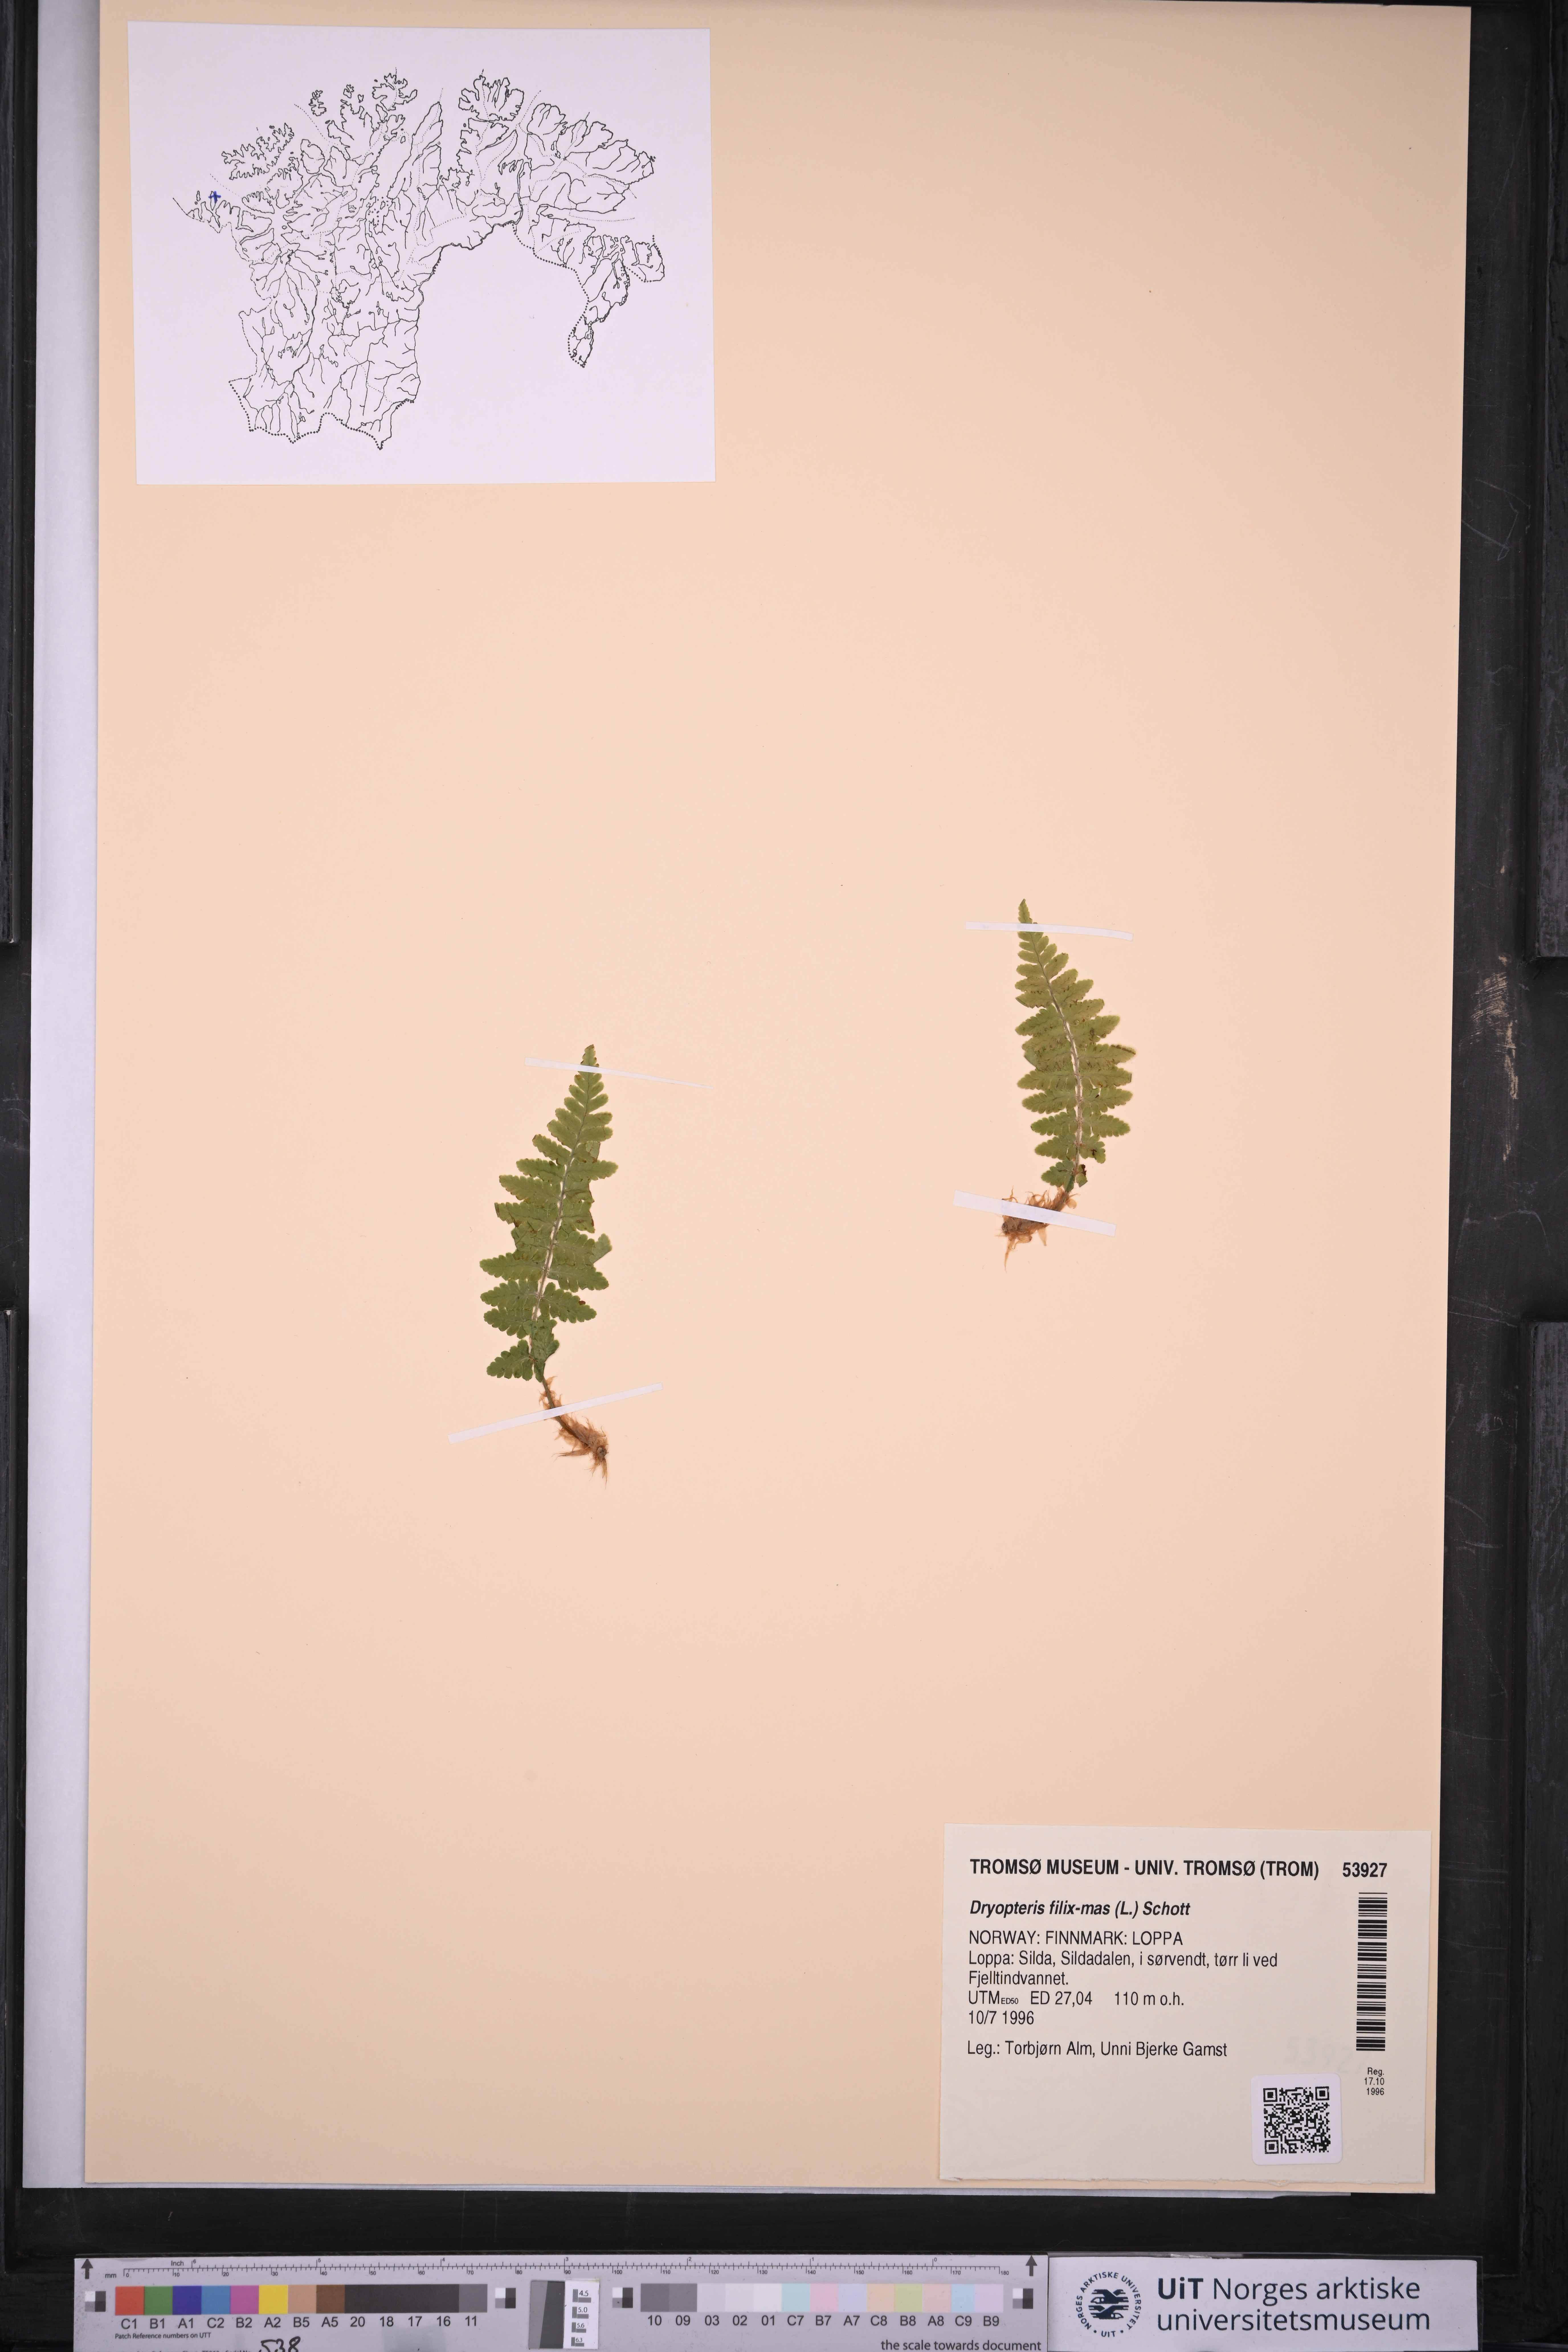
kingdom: Plantae
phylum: Tracheophyta
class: Polypodiopsida
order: Polypodiales
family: Dryopteridaceae
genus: Dryopteris
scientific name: Dryopteris filix-mas
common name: Male fern
